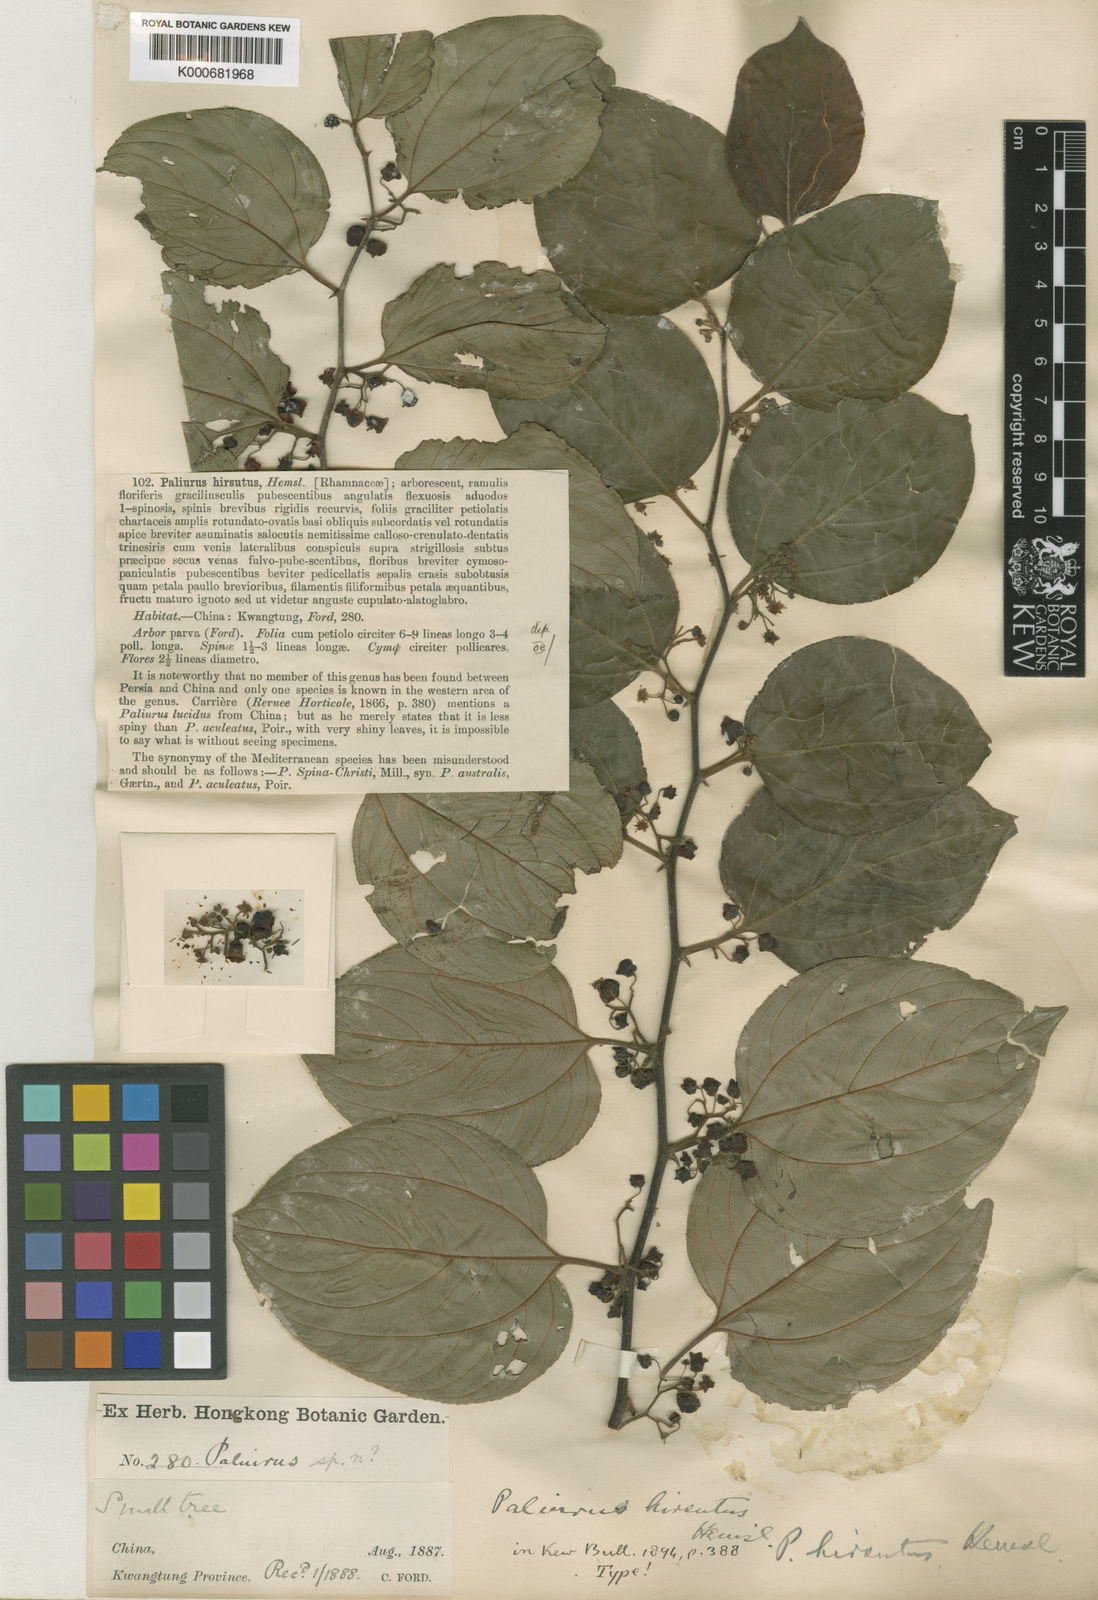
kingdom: Plantae
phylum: Tracheophyta
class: Magnoliopsida
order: Rosales
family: Rhamnaceae
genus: Paliurus
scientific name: Paliurus hirsutus
